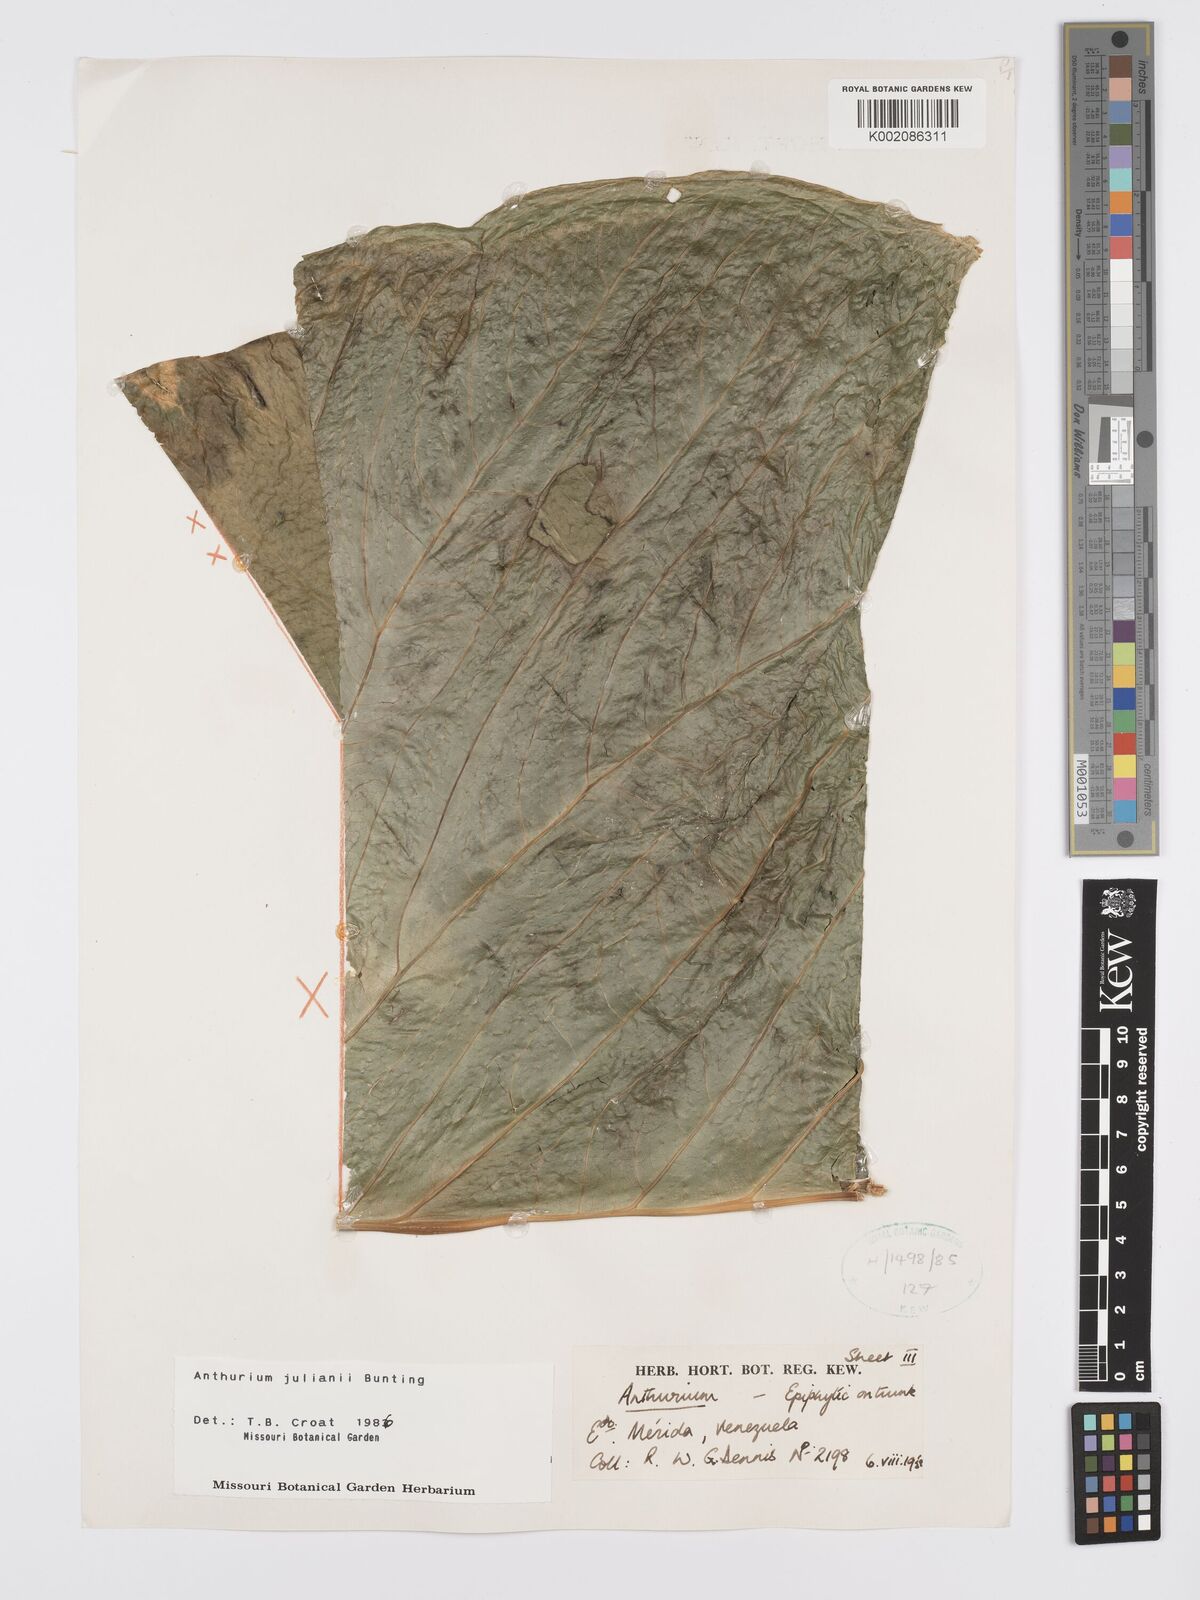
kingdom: Plantae
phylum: Tracheophyta
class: Liliopsida
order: Alismatales
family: Araceae
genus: Anthurium
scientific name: Anthurium julianii
